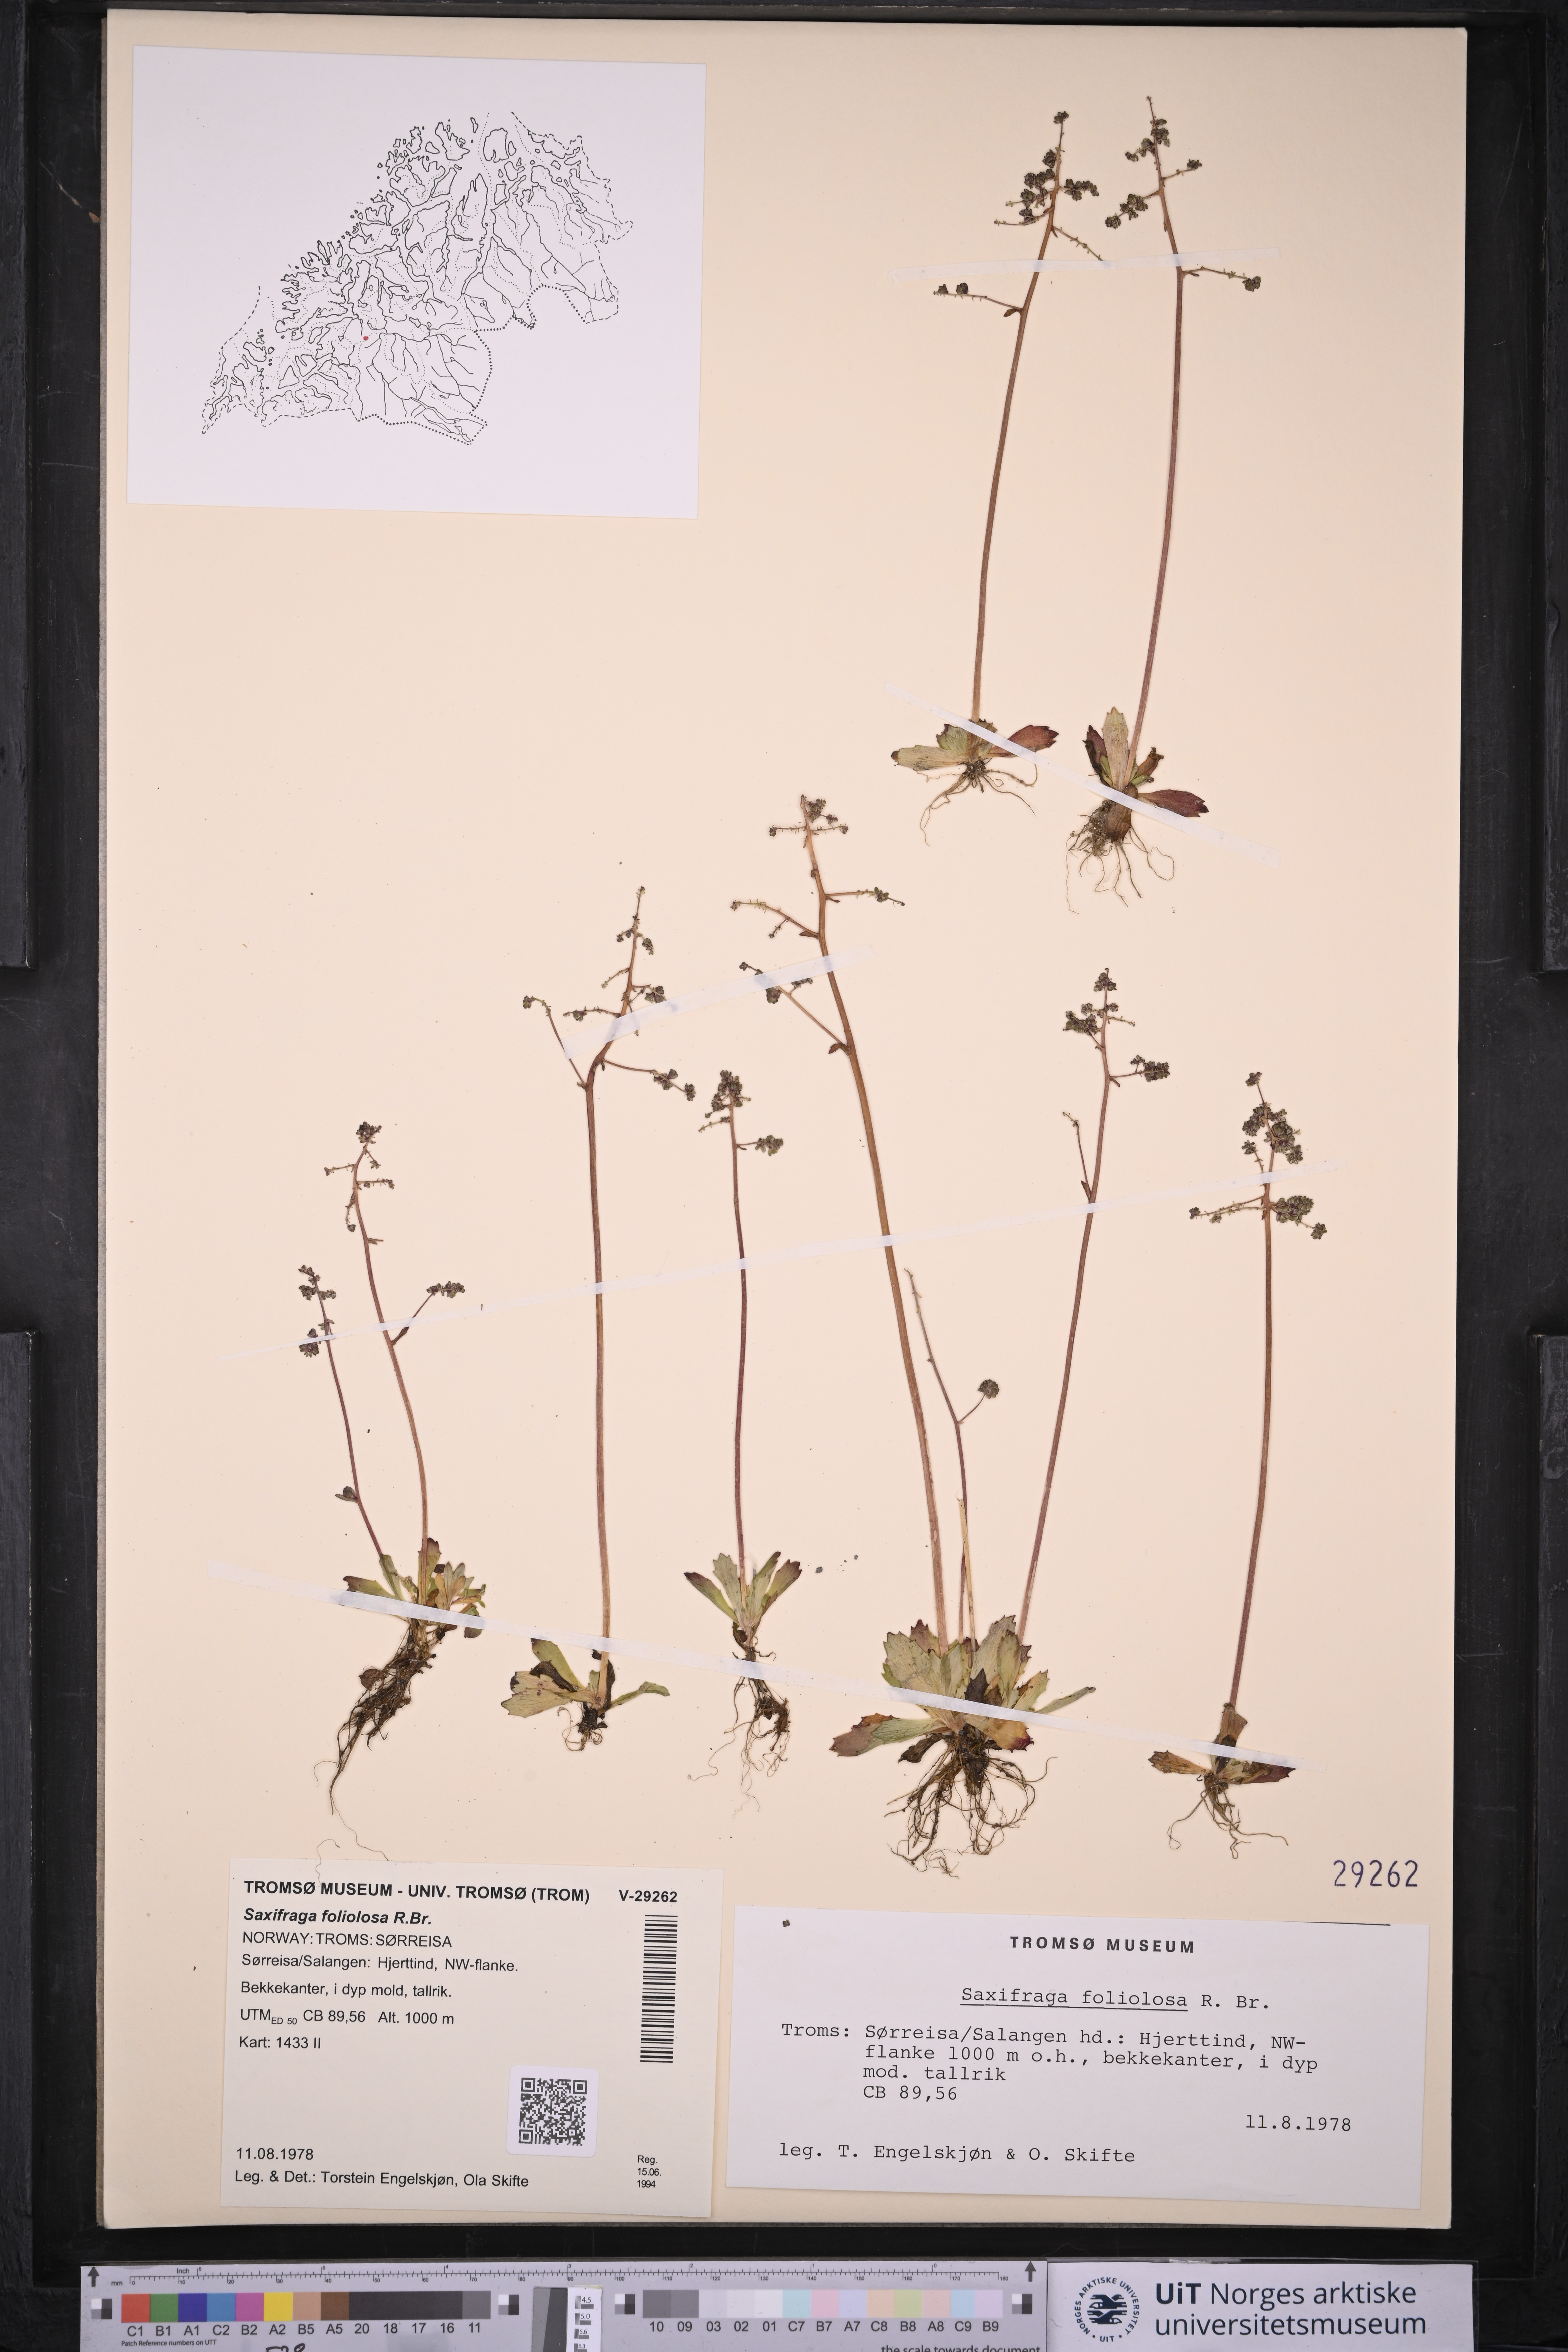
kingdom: Plantae
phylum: Tracheophyta
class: Magnoliopsida
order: Saxifragales
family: Saxifragaceae
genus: Micranthes
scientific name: Micranthes foliolosa
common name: Leafystem saxifrage
